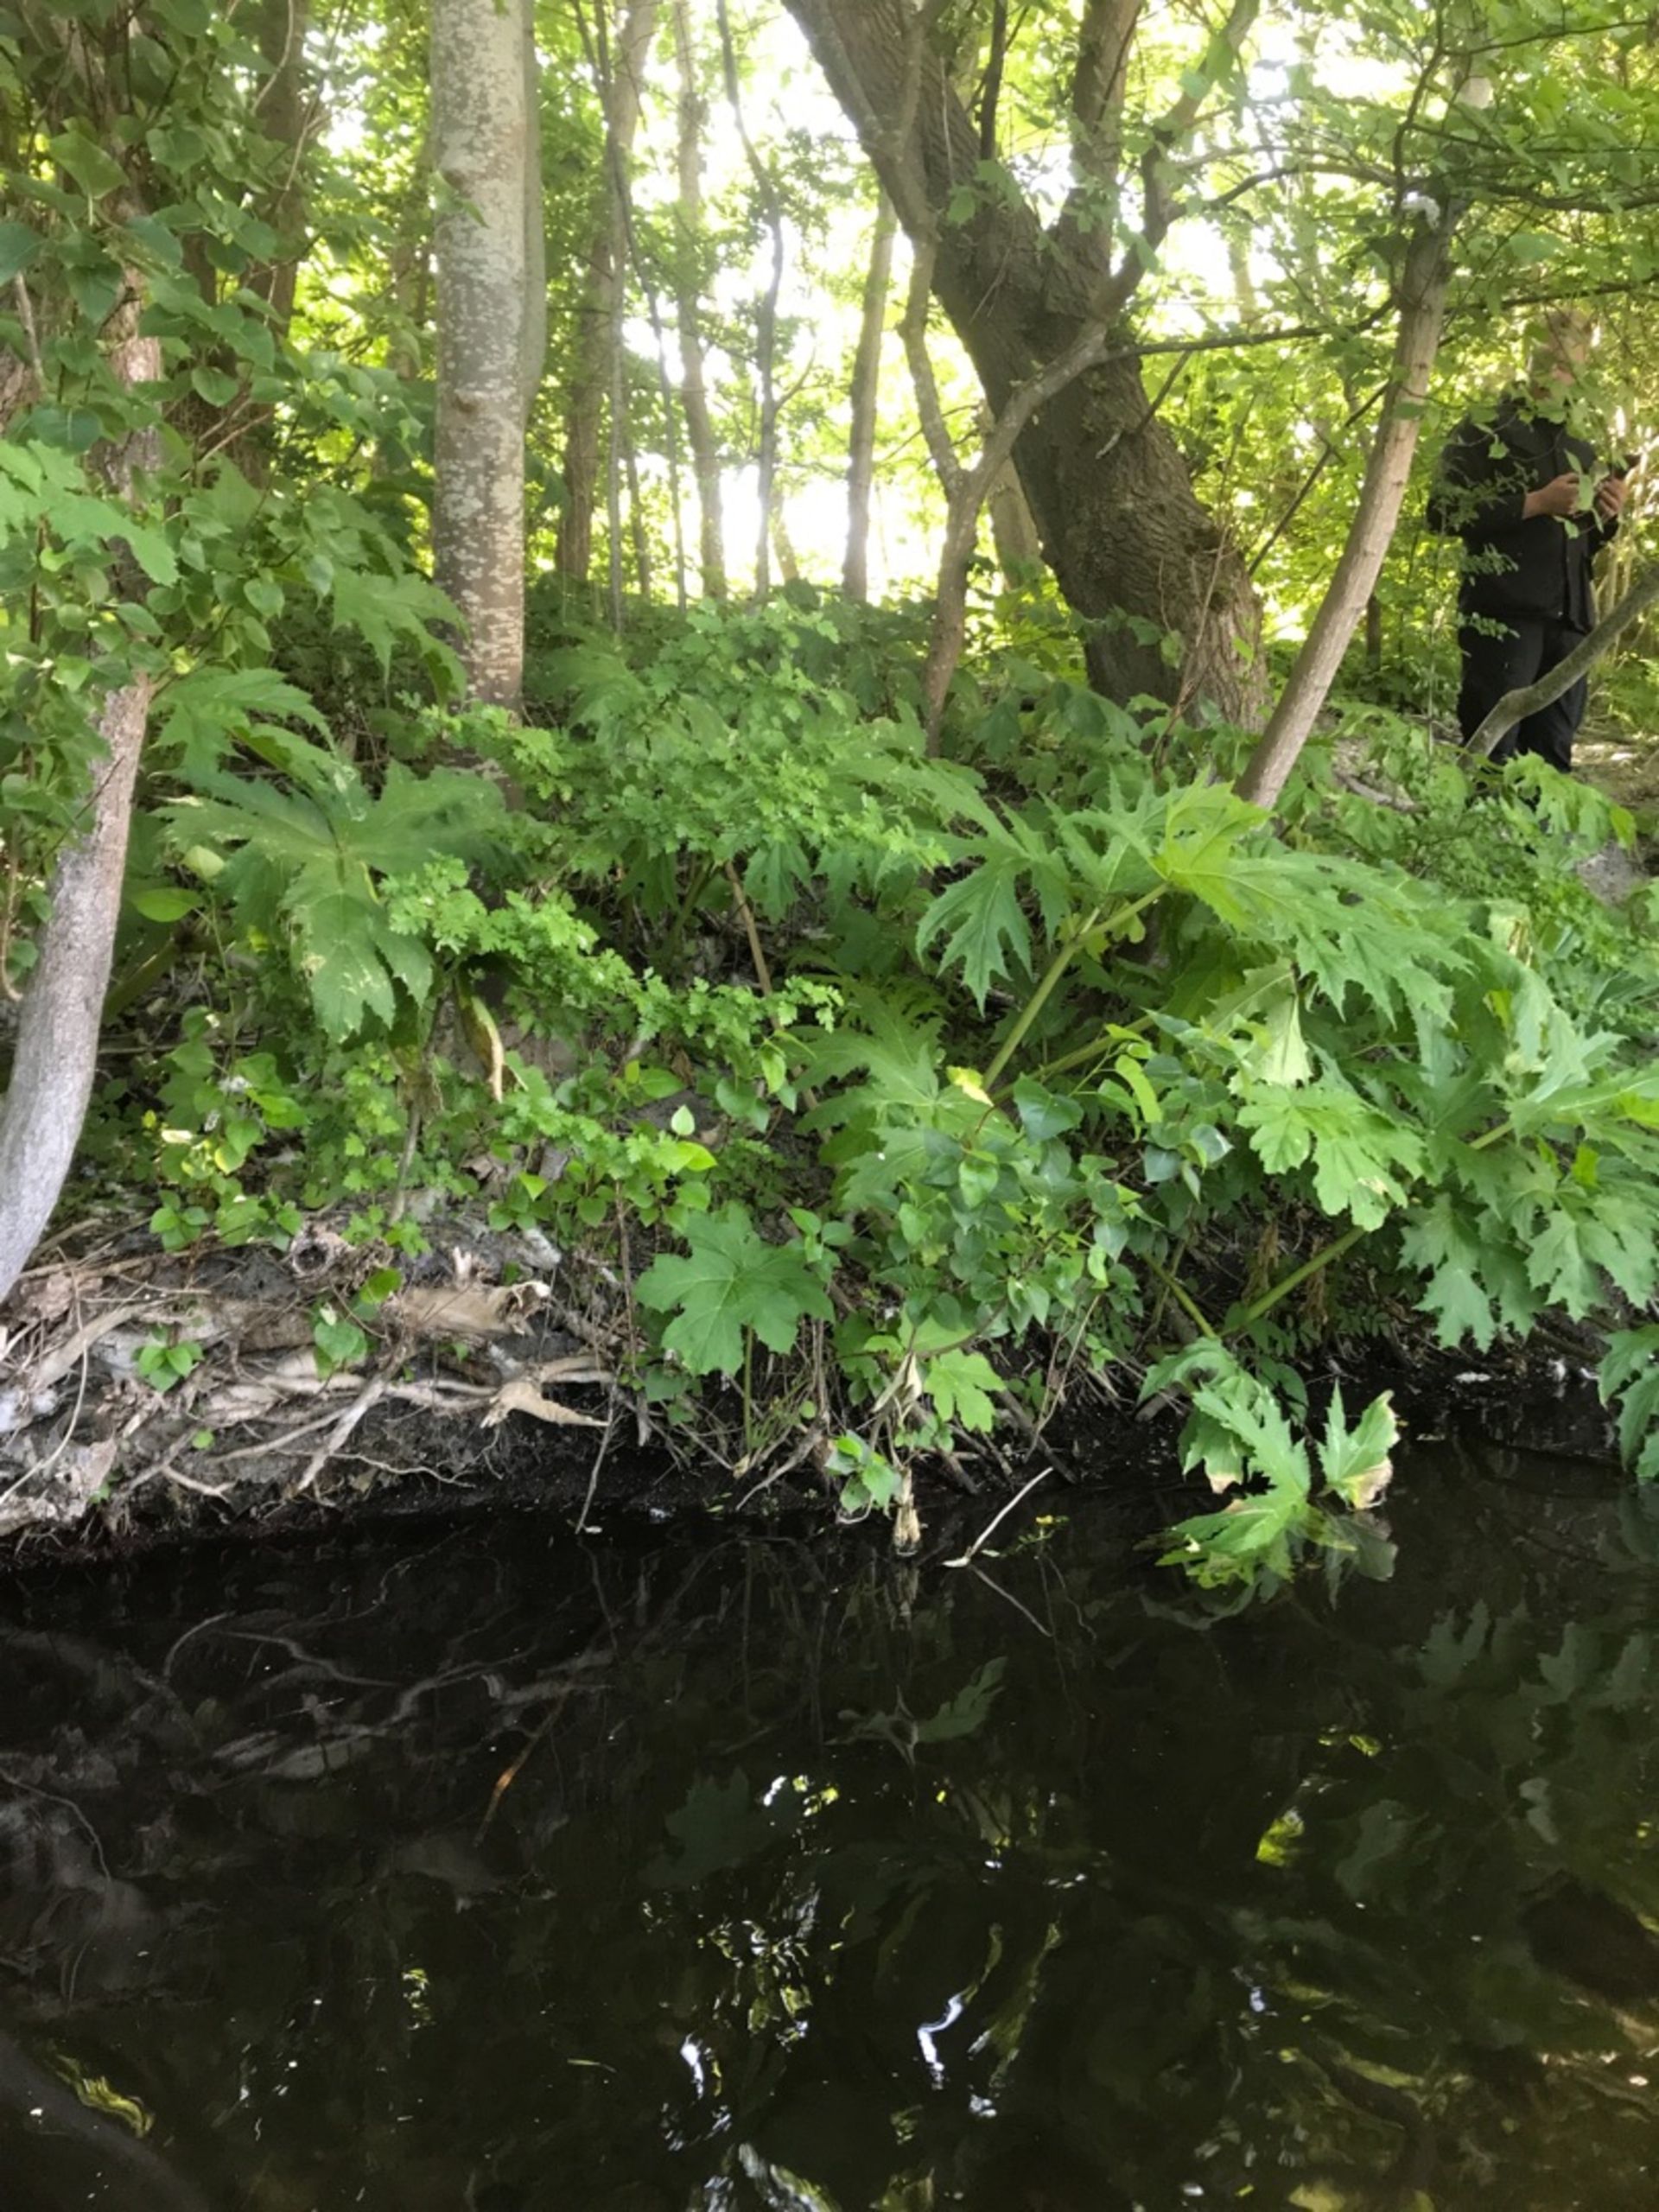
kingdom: Plantae
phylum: Tracheophyta
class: Magnoliopsida
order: Apiales
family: Apiaceae
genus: Heracleum
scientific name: Heracleum mantegazzianum
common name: Kæmpe-bjørneklo
